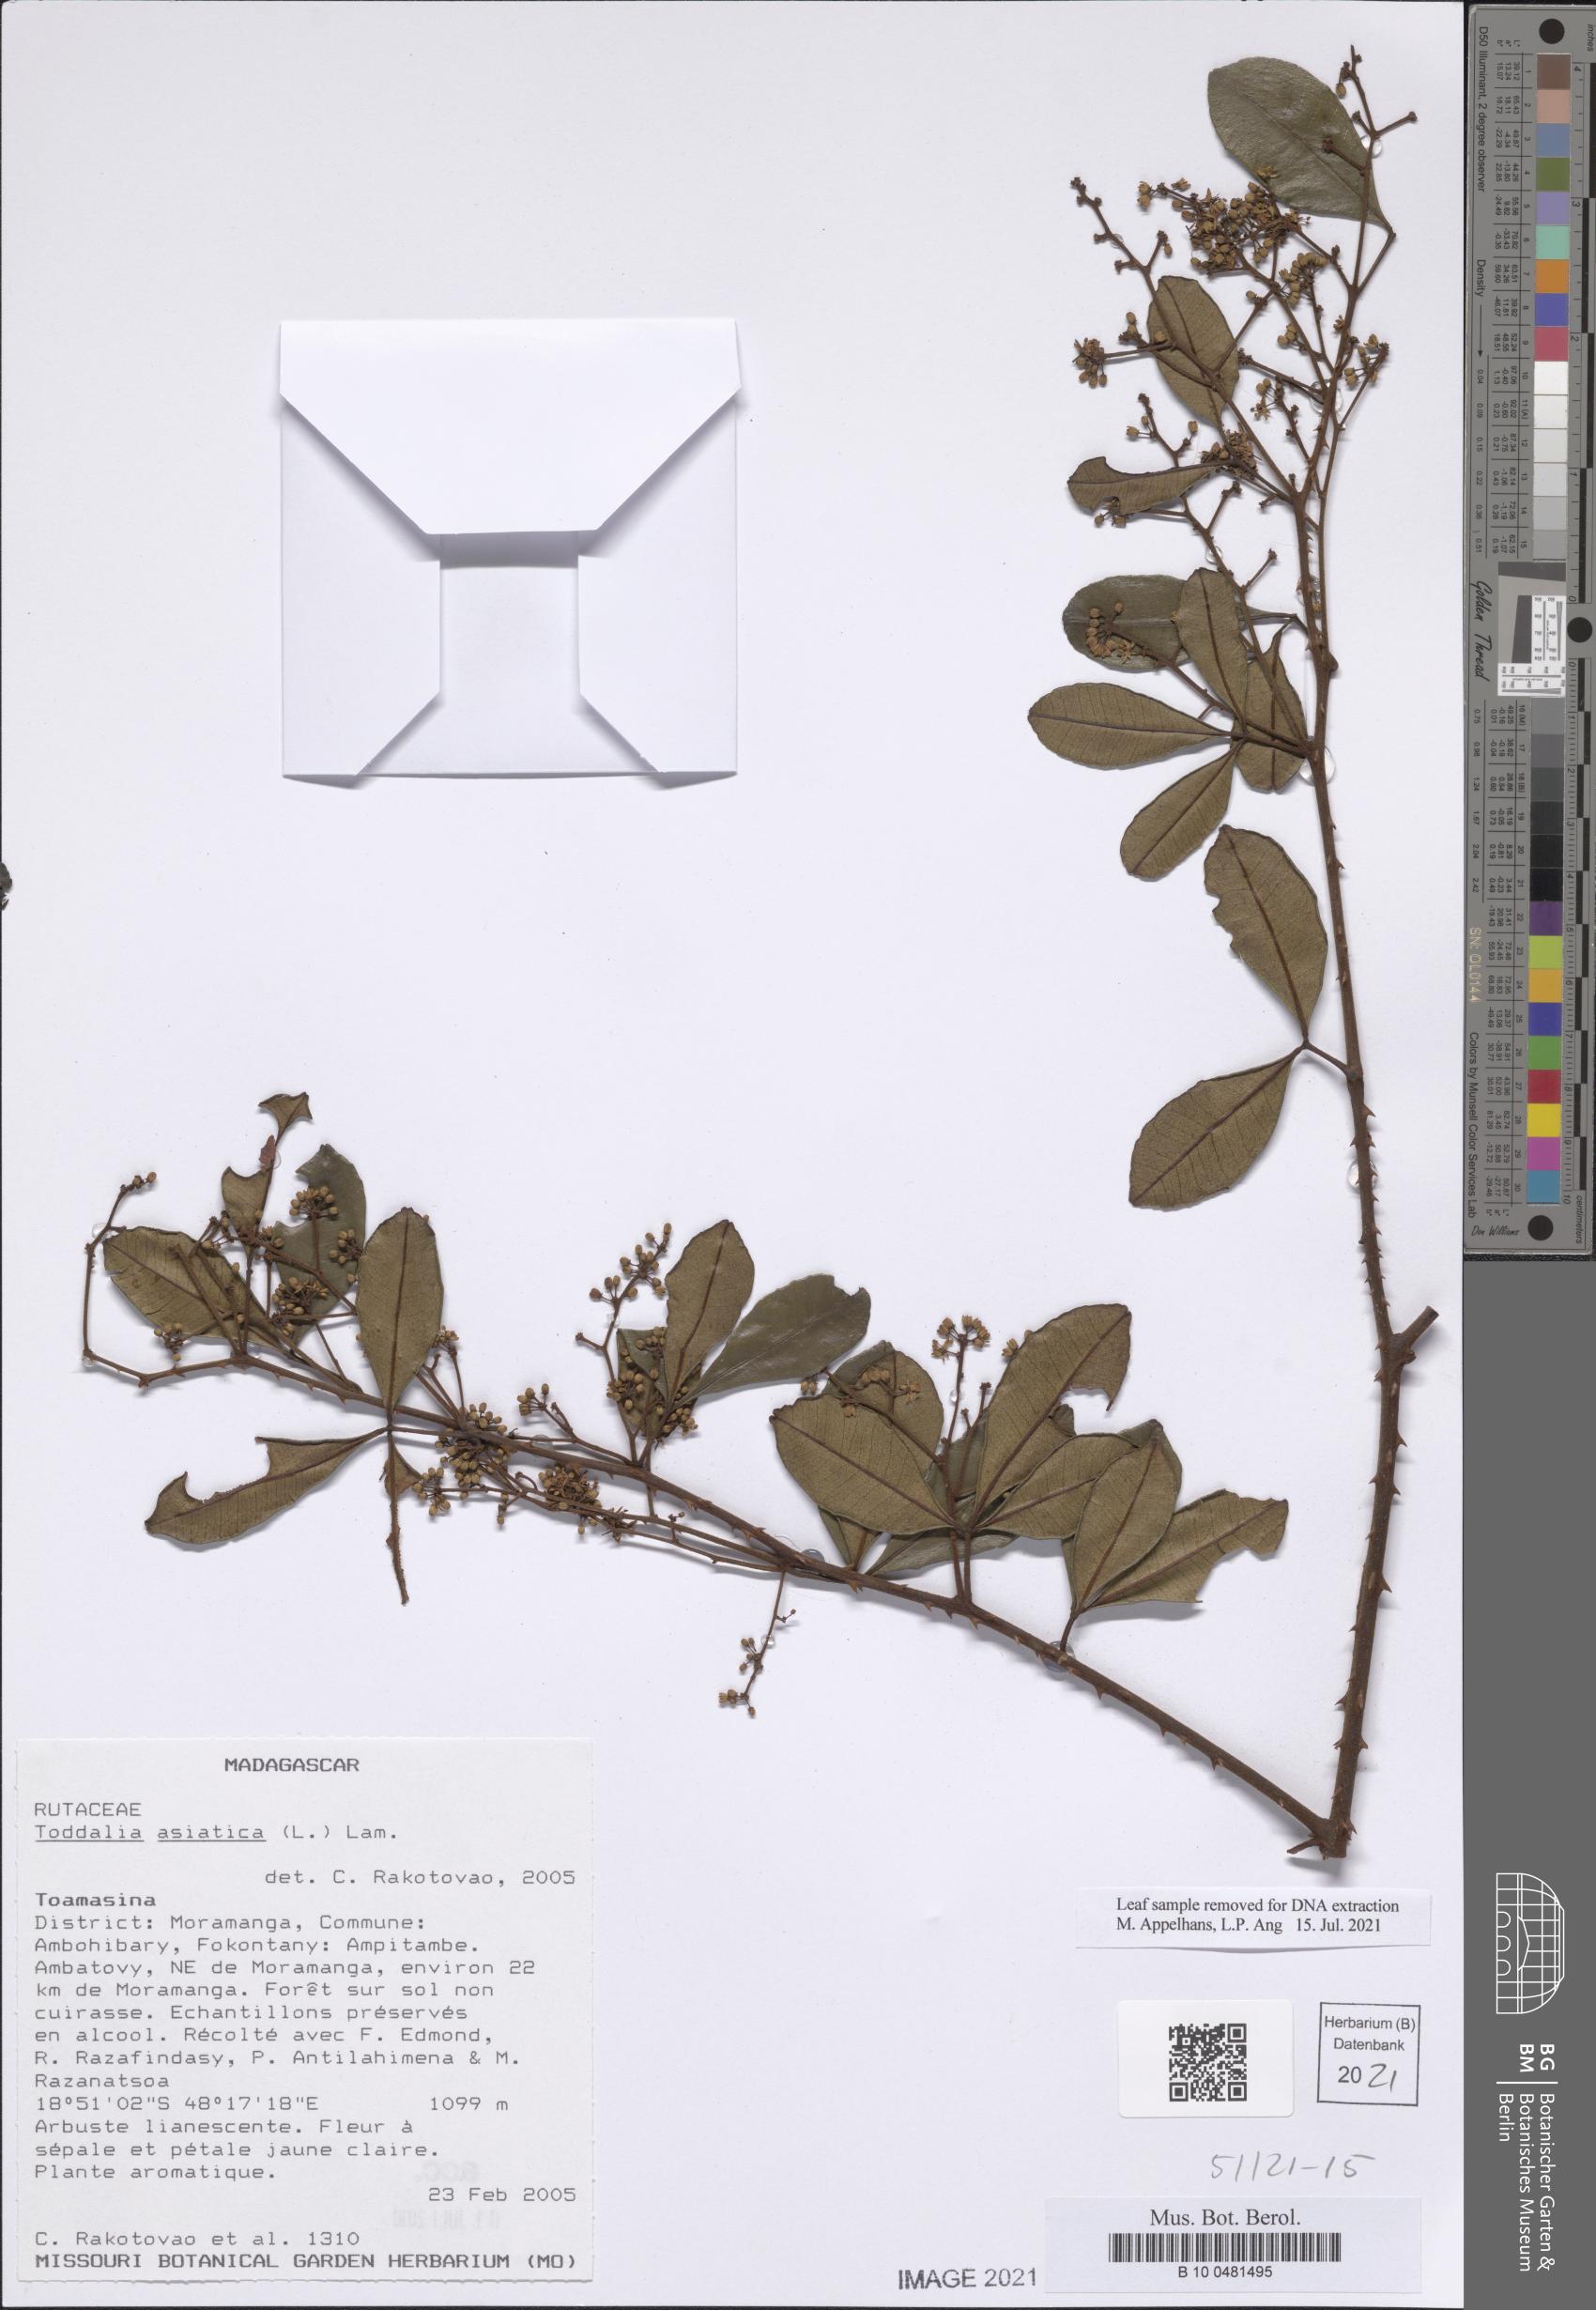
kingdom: Plantae
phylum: Tracheophyta
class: Magnoliopsida
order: Sapindales
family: Rutaceae
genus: Zanthoxylum
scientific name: Zanthoxylum asiaticum
